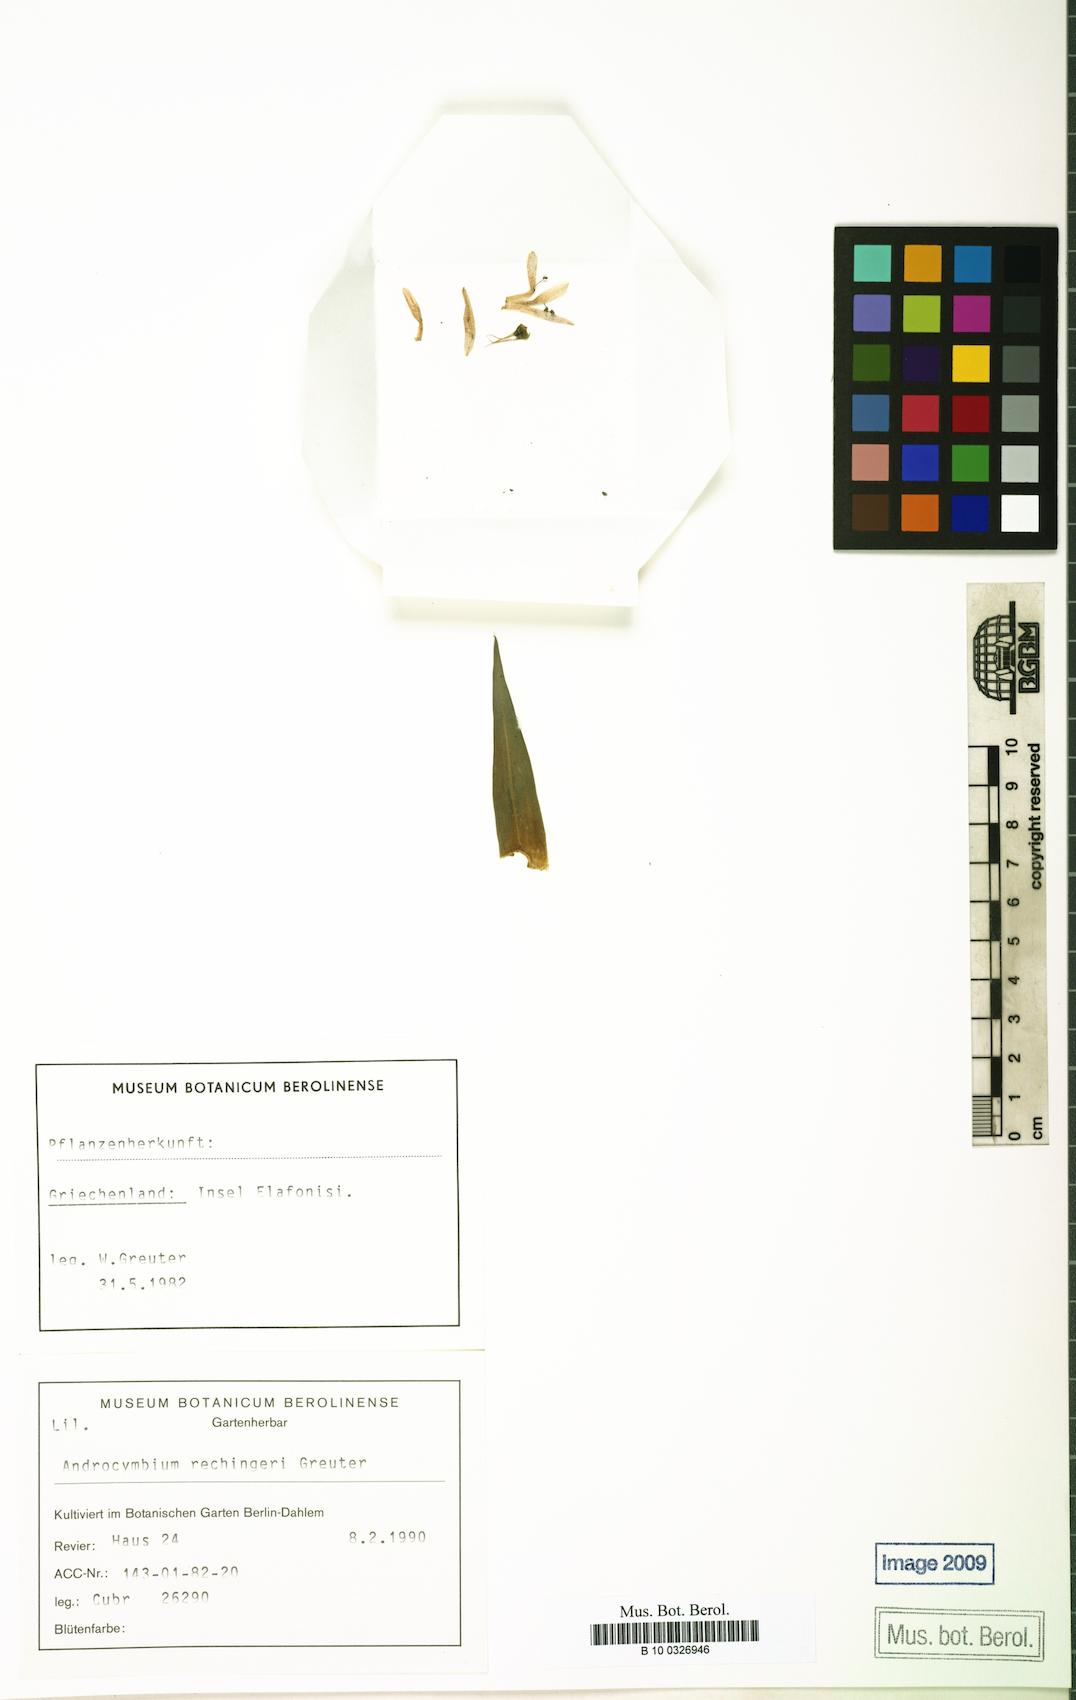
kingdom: Plantae
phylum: Tracheophyta
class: Liliopsida
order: Liliales
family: Colchicaceae
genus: Colchicum
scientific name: Colchicum rechingeri
